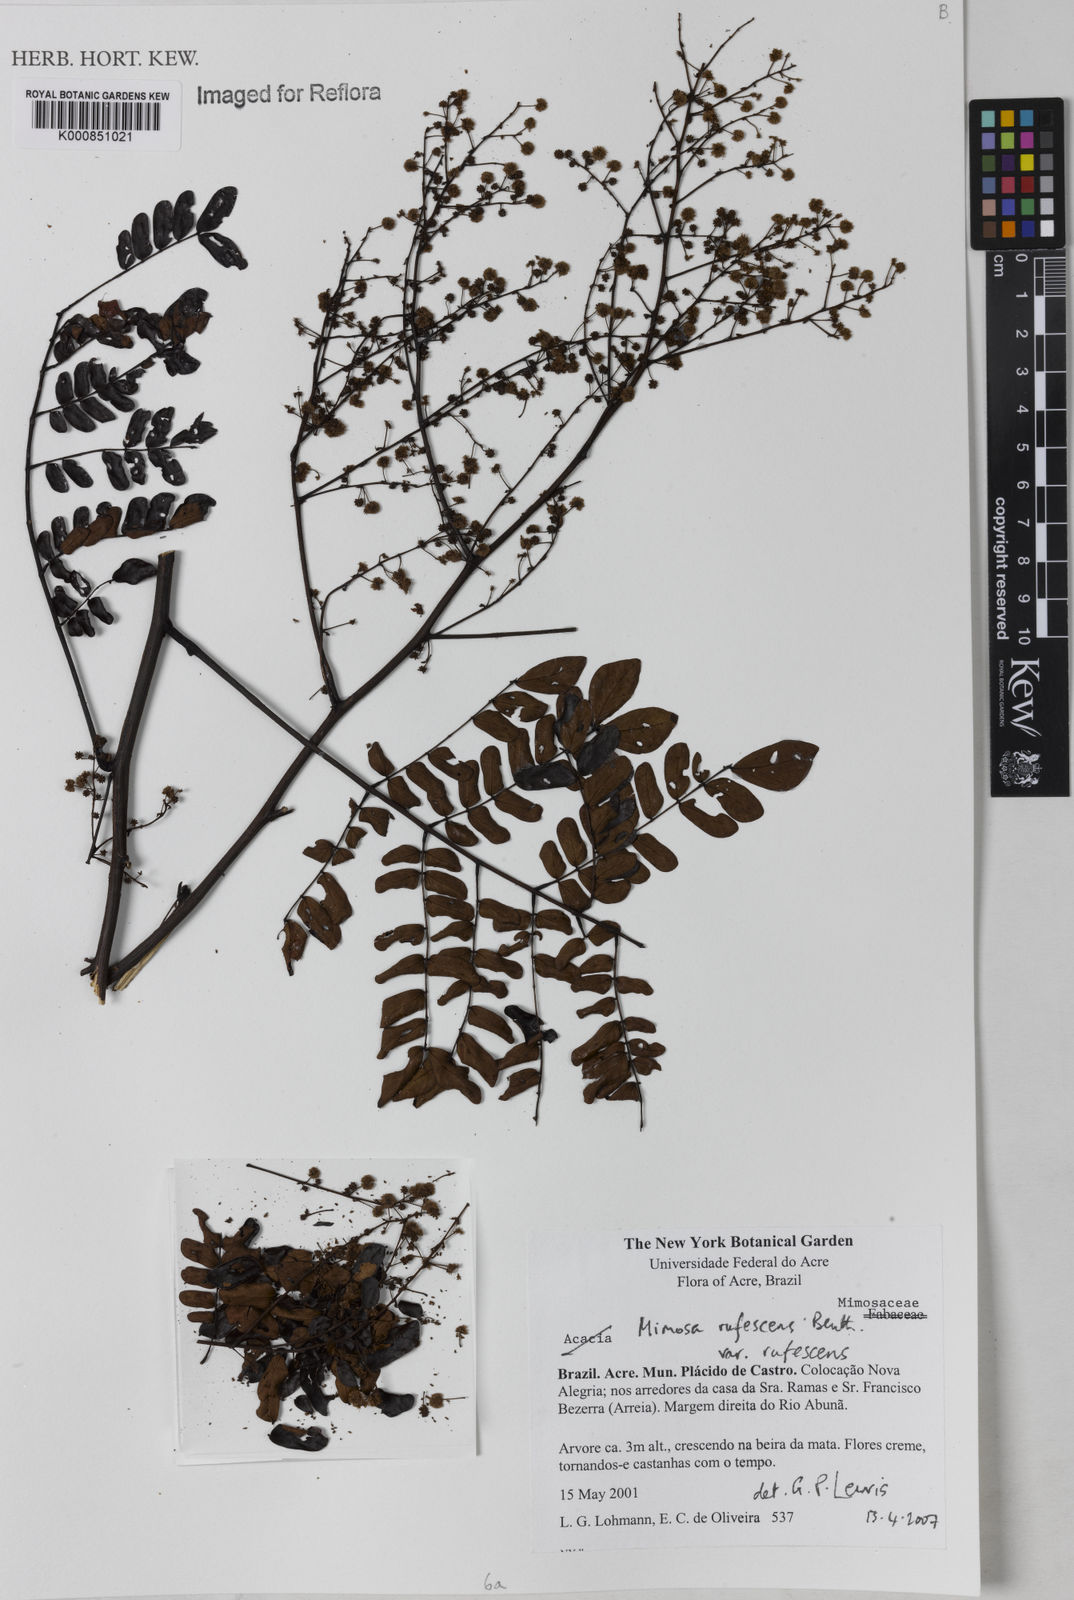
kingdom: Plantae
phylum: Tracheophyta
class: Magnoliopsida
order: Fabales
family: Fabaceae
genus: Mimosa
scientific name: Mimosa rufescens
